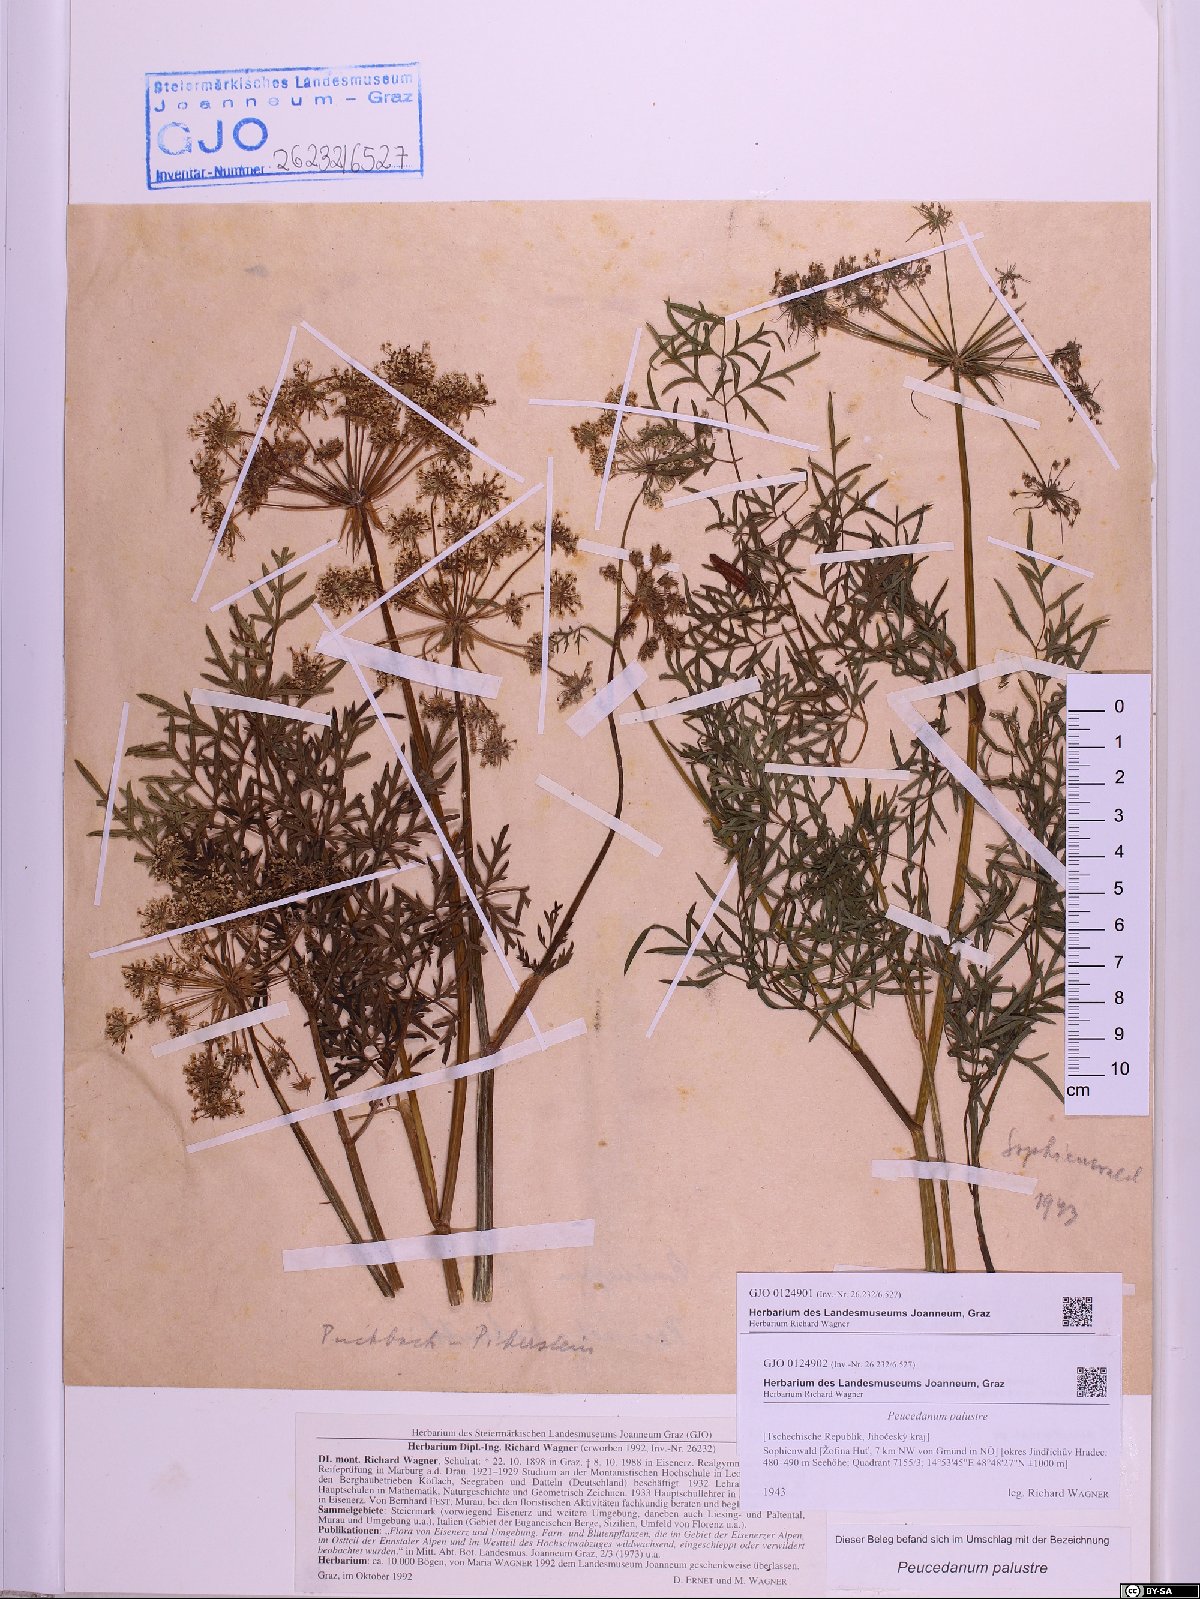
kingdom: Plantae
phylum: Tracheophyta
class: Magnoliopsida
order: Apiales
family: Apiaceae
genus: Thysselinum
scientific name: Thysselinum palustre
